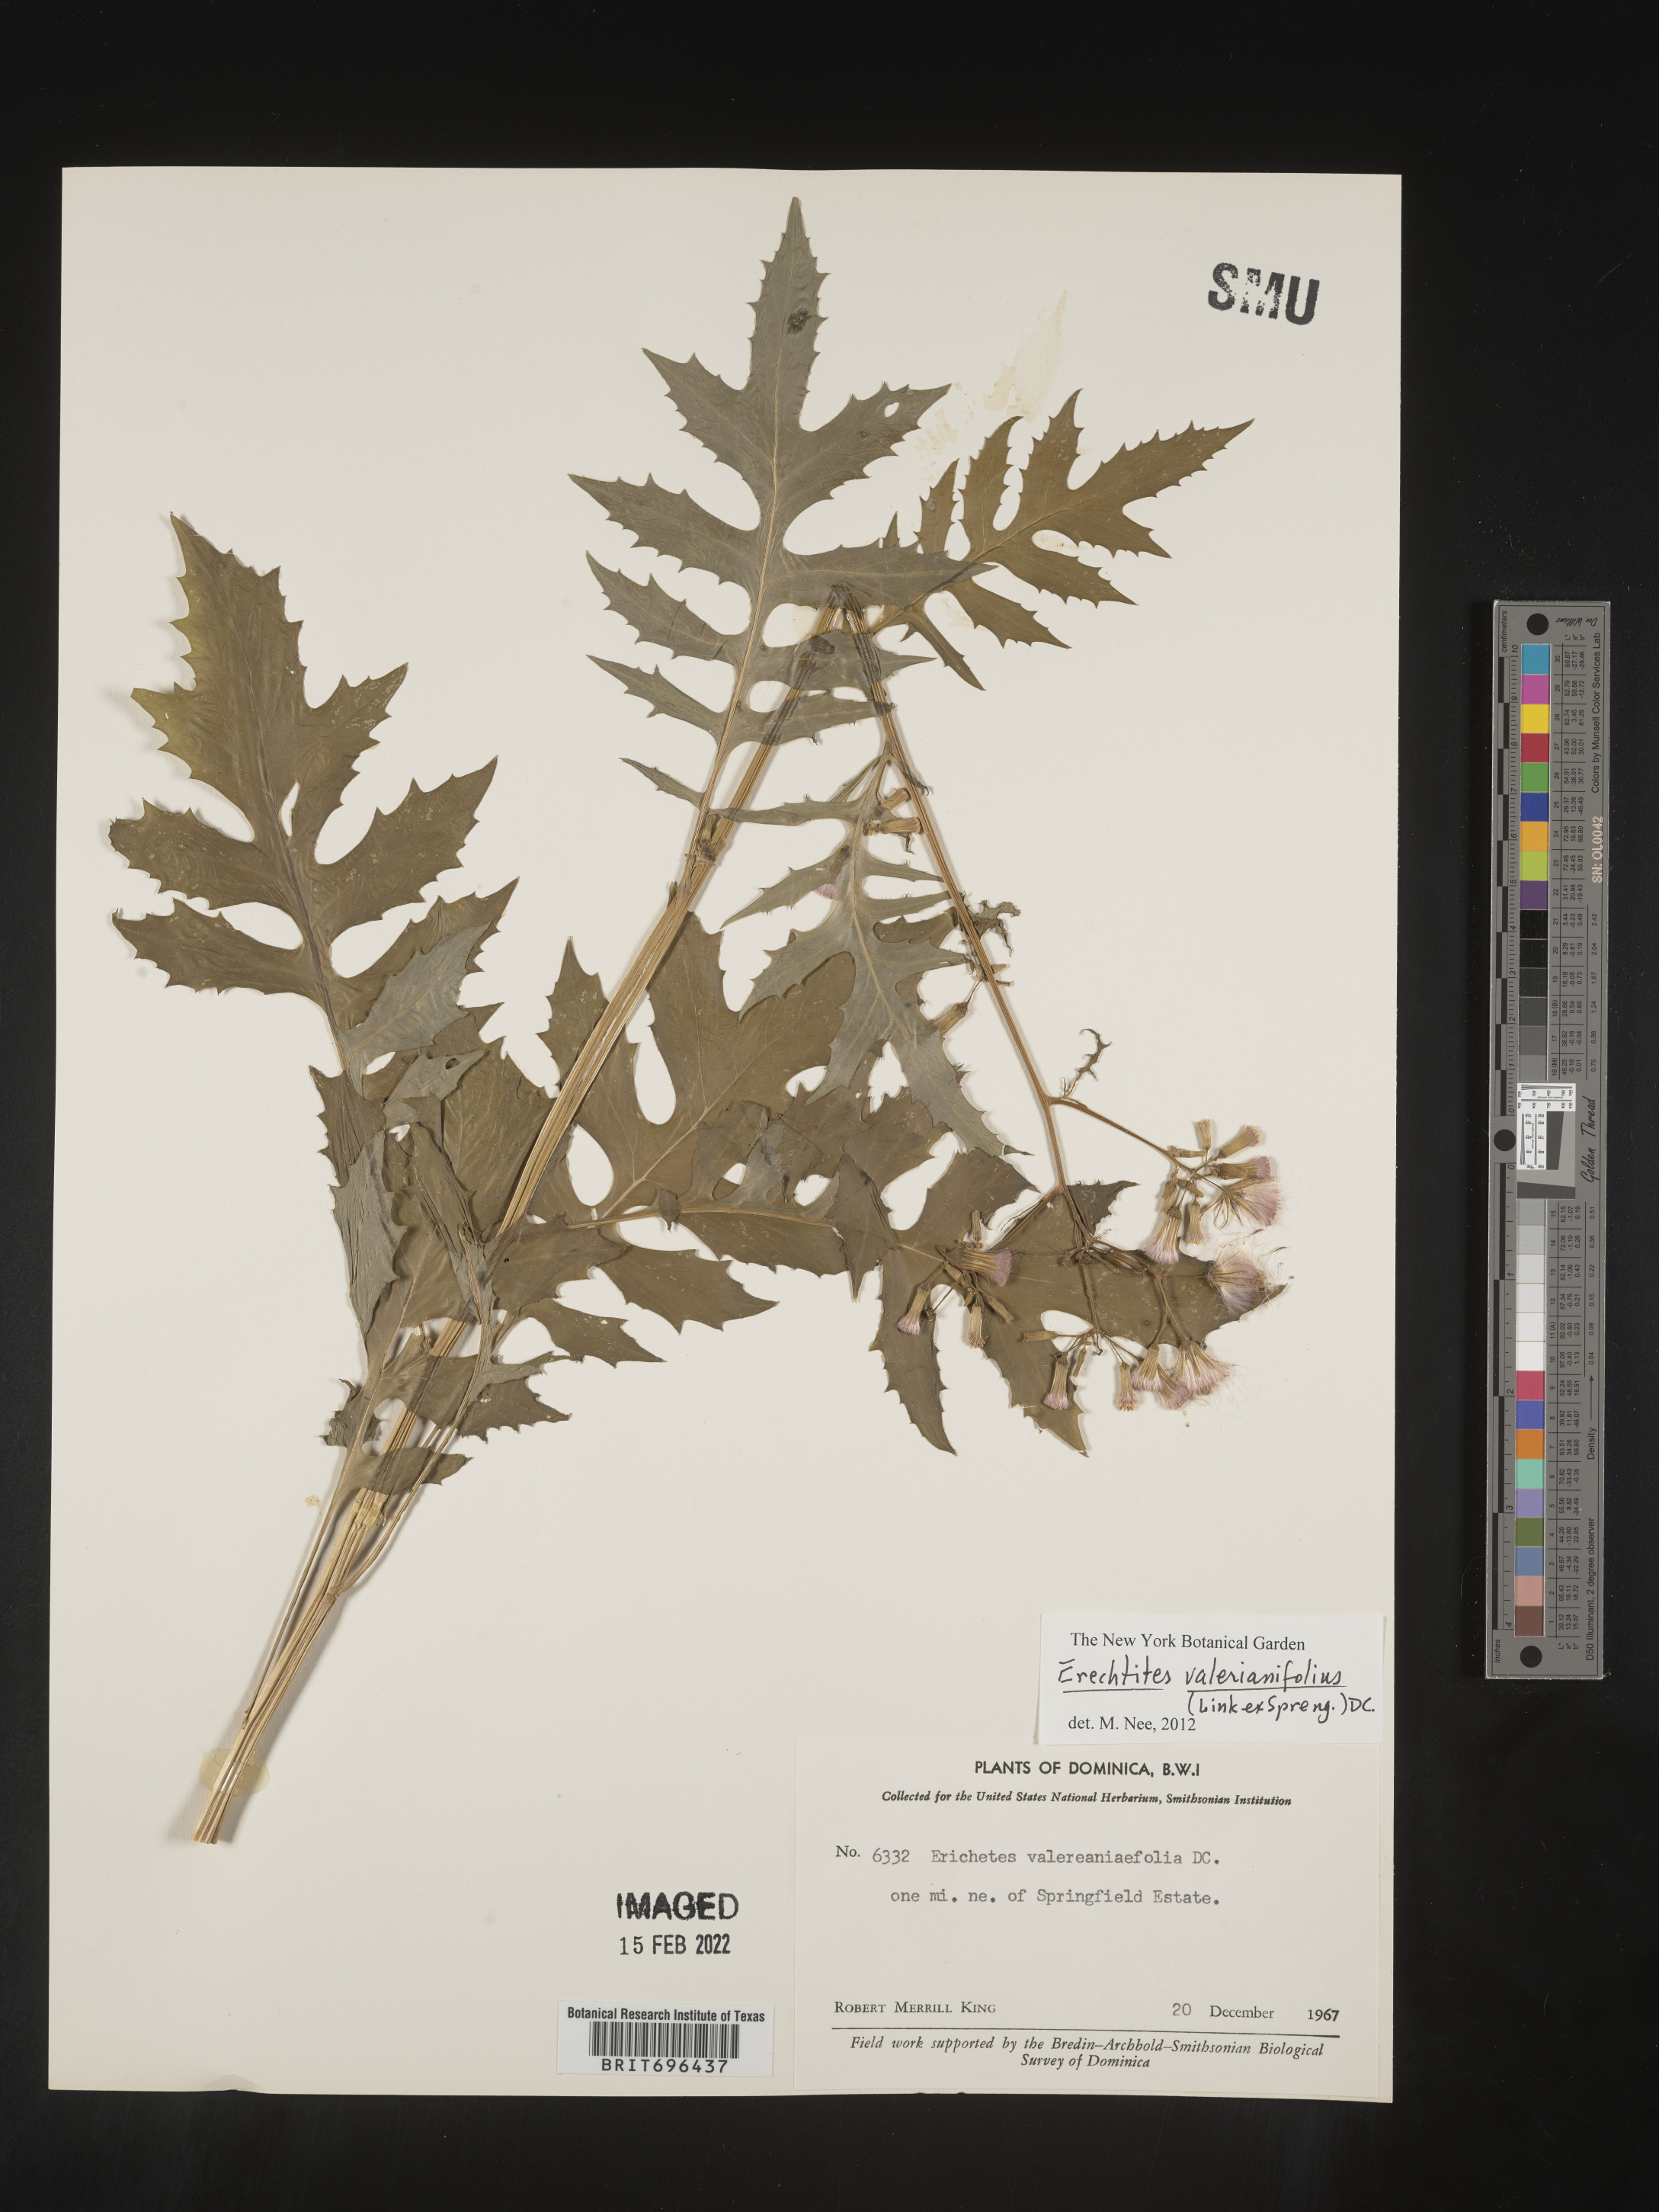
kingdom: Plantae
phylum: Tracheophyta
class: Magnoliopsida
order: Asterales
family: Asteraceae
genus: Erechtites
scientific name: Erechtites
